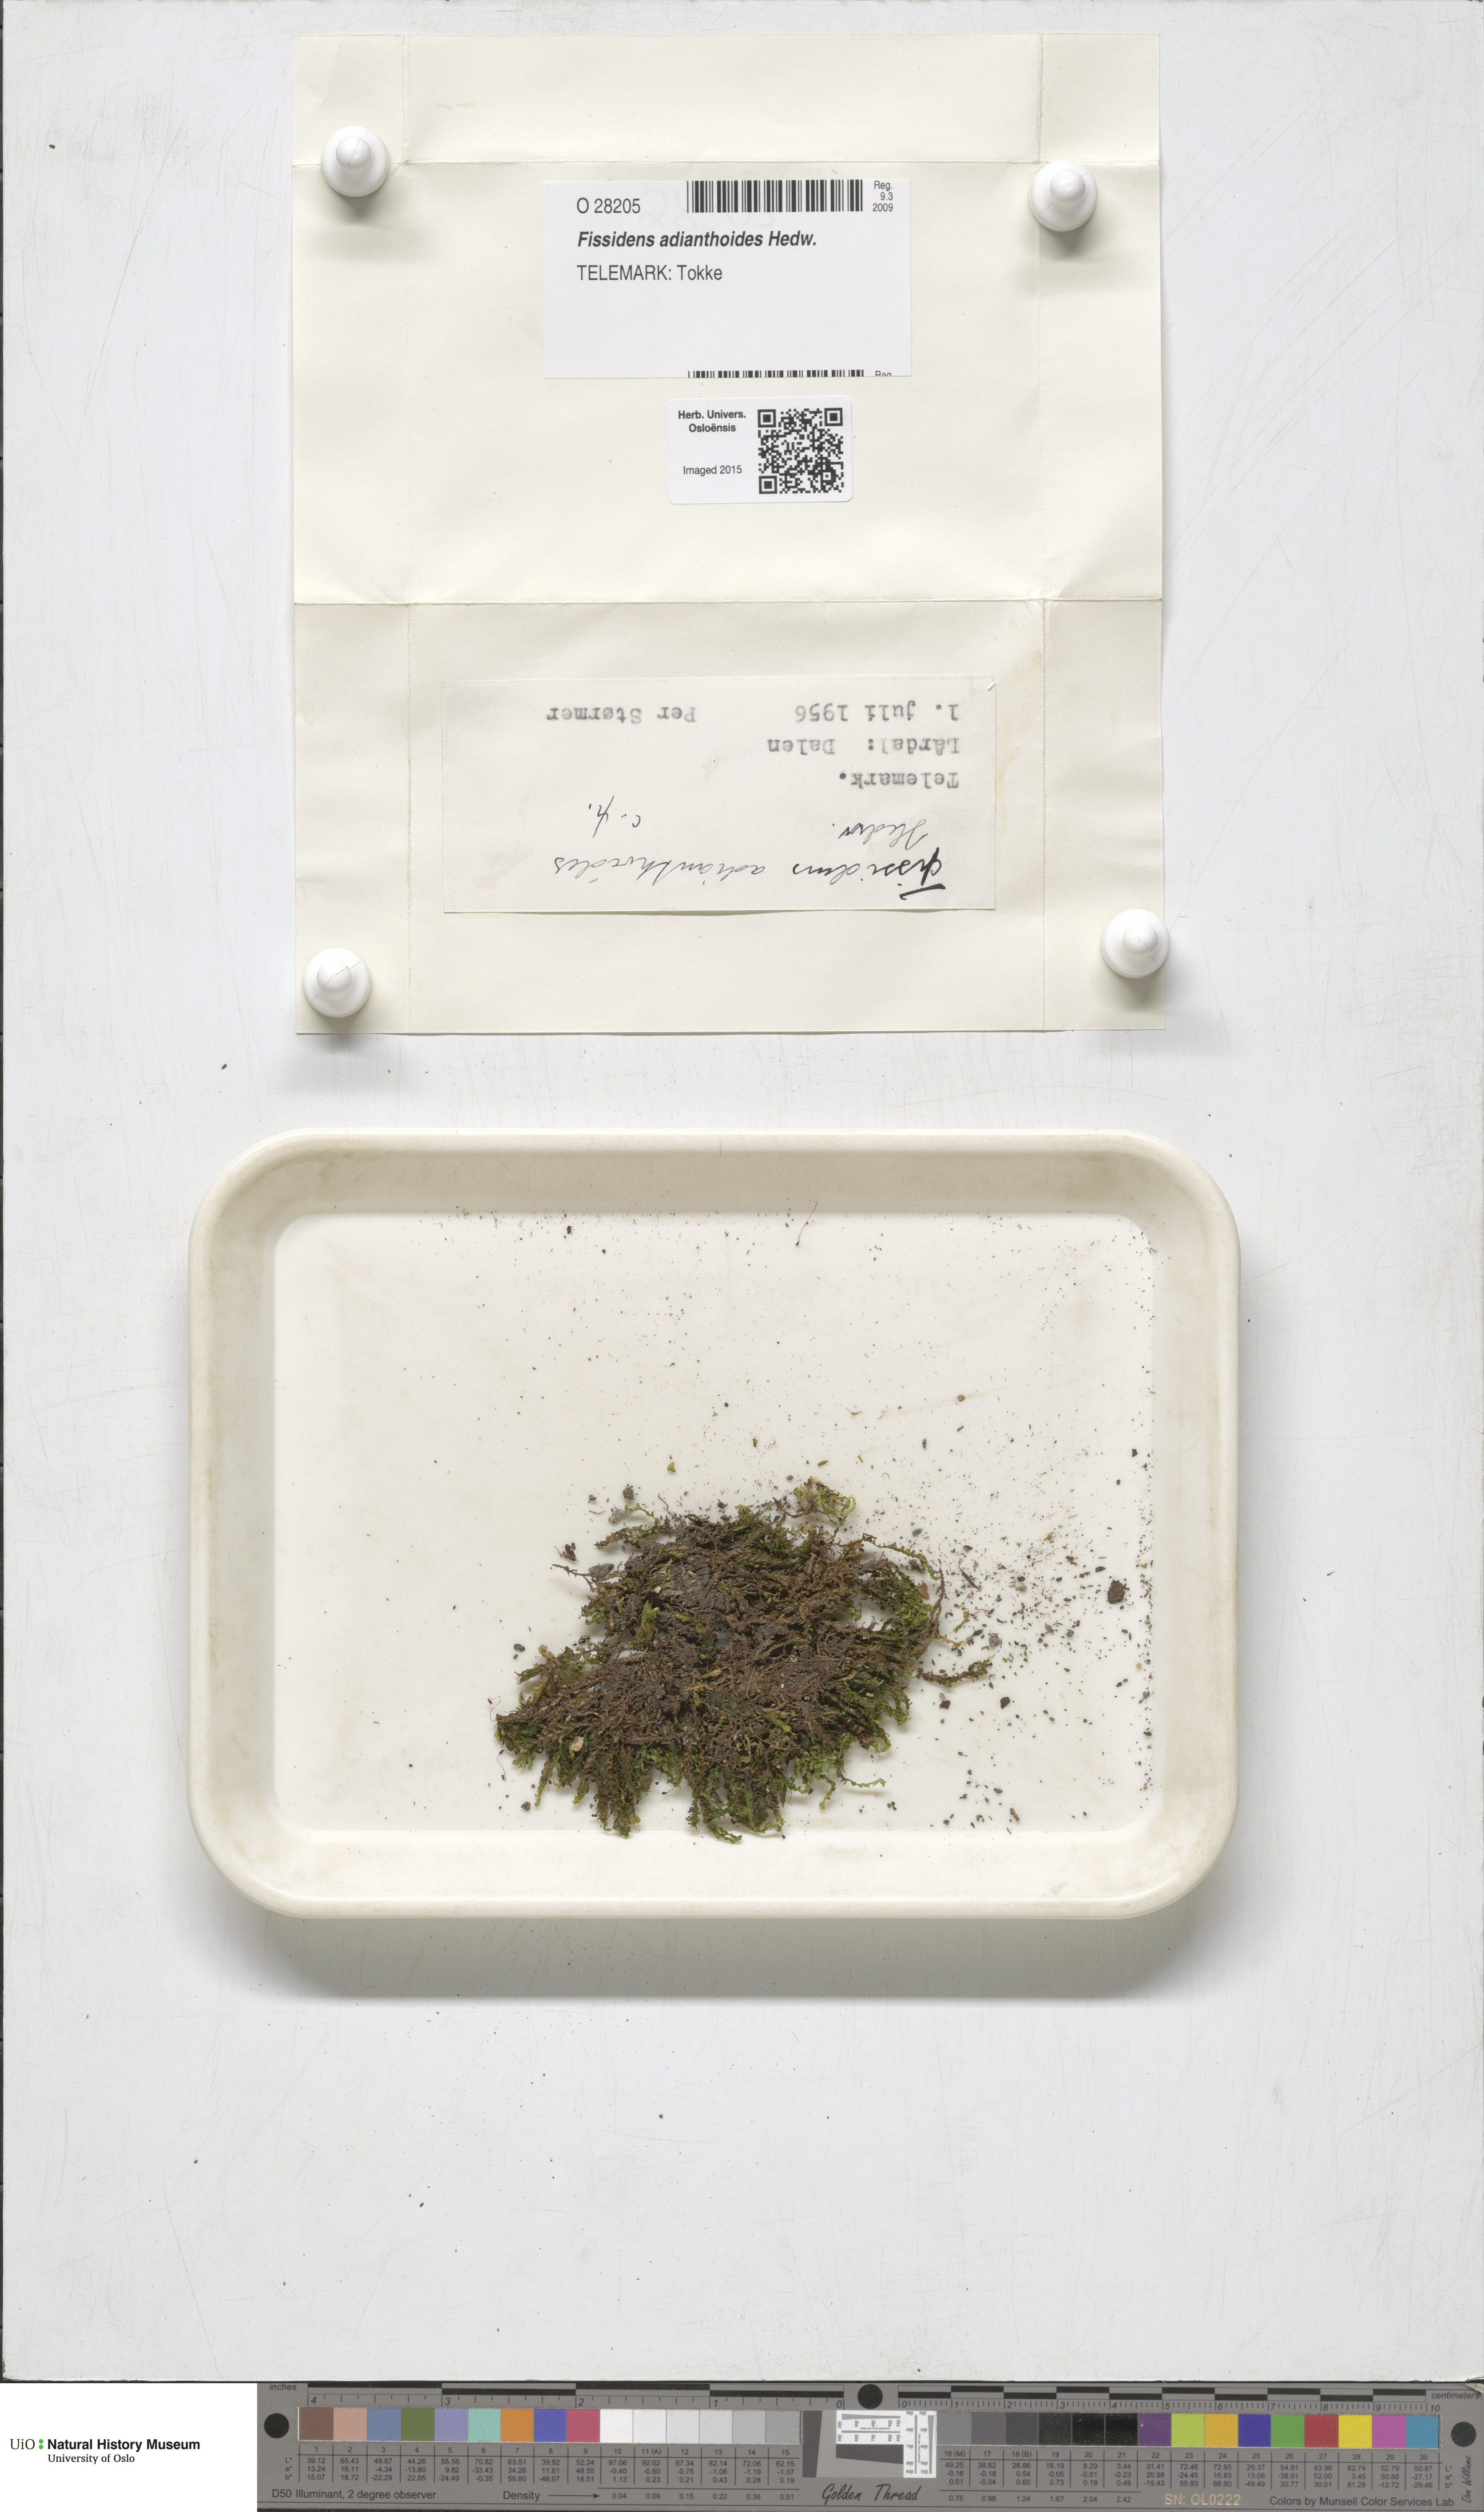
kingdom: Plantae
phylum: Bryophyta
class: Bryopsida
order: Dicranales
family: Fissidentaceae
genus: Fissidens
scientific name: Fissidens adianthoides
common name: Maidenhair pocket moss
